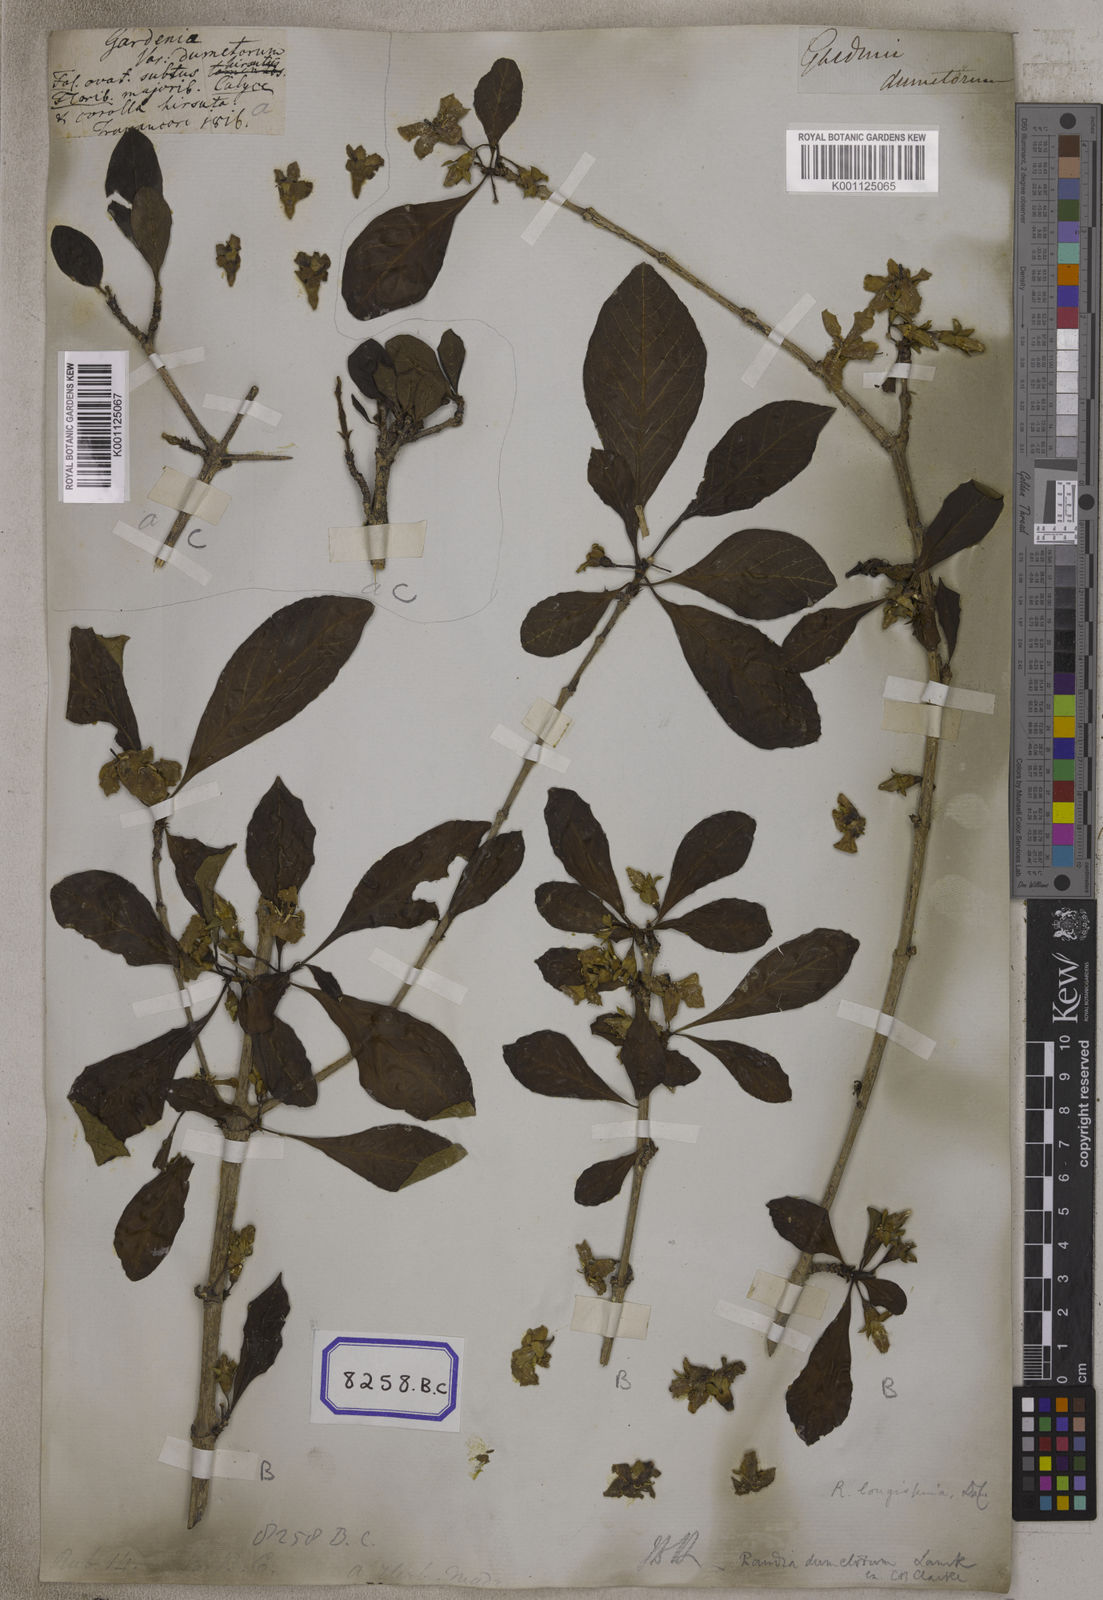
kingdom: Plantae
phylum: Tracheophyta
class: Magnoliopsida
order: Gentianales
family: Rubiaceae
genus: Gardenia
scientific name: Gardenia
